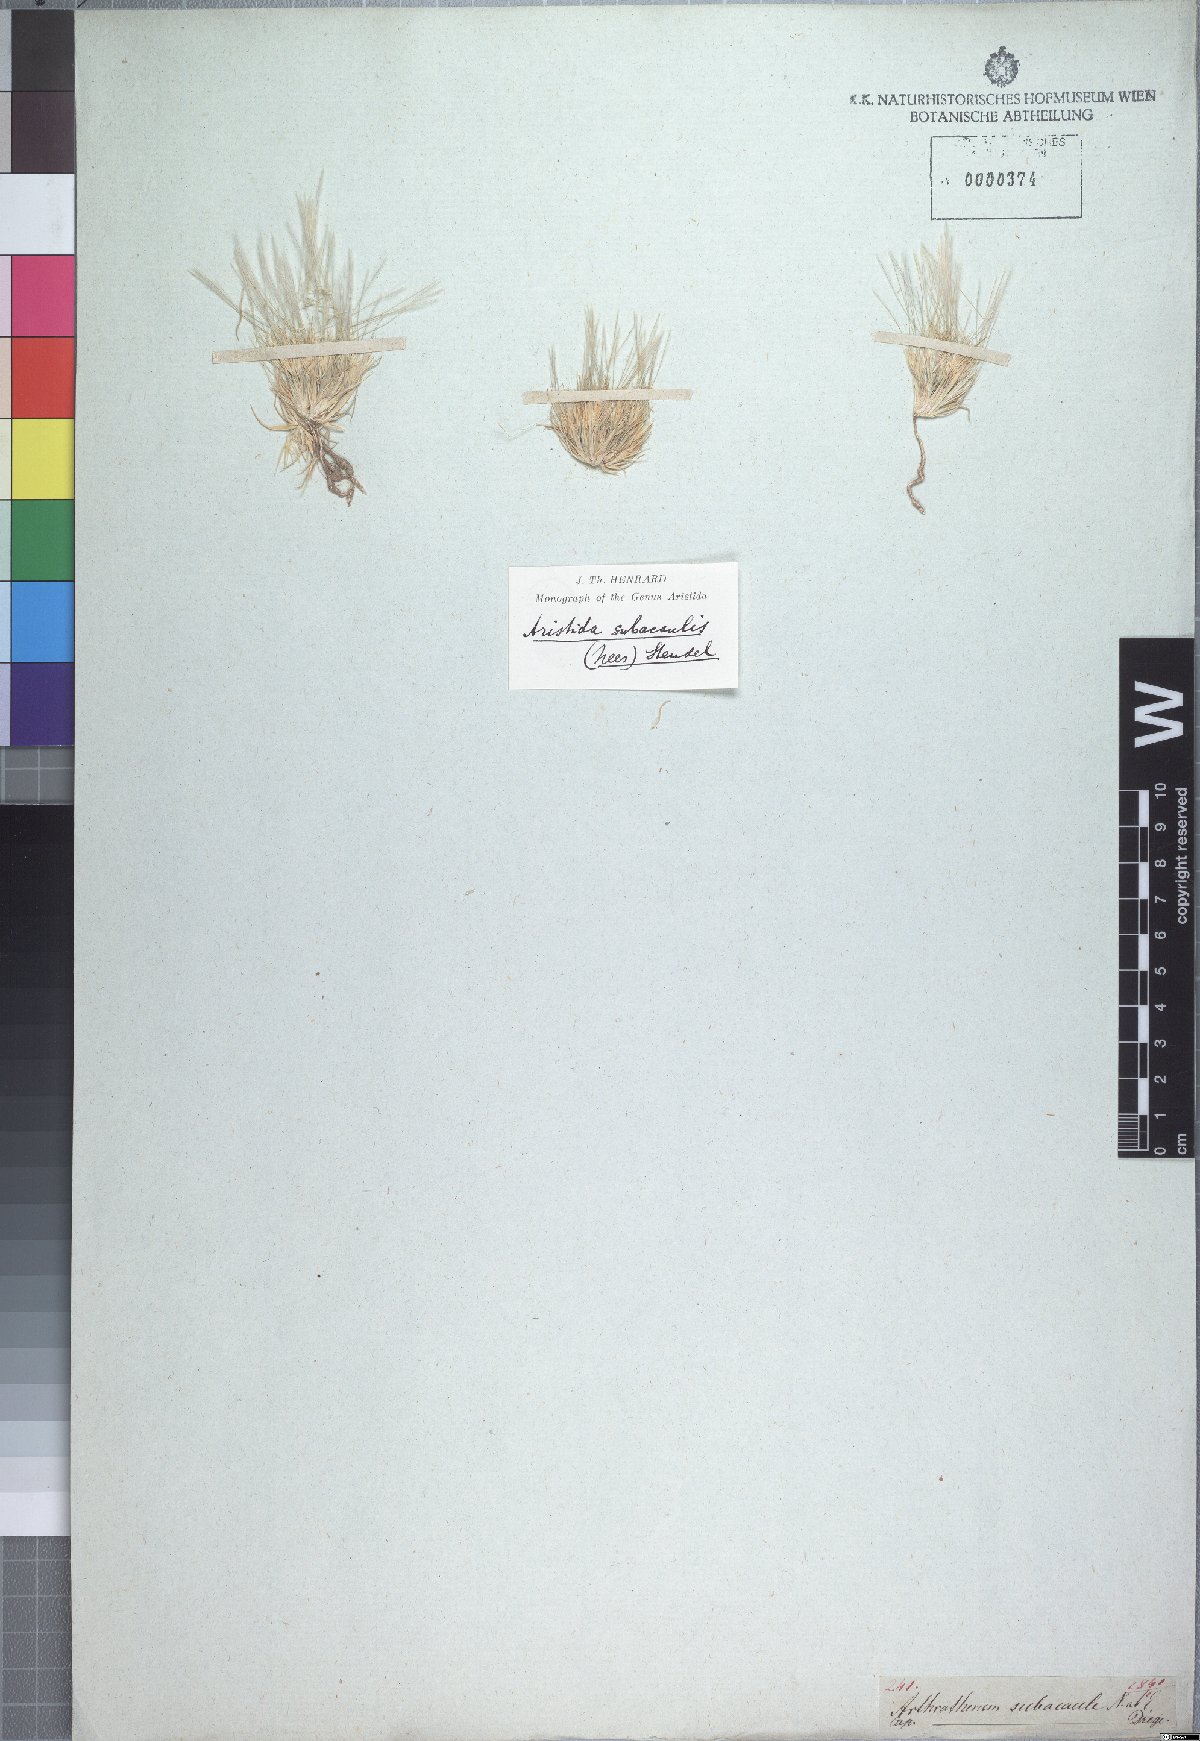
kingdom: Plantae
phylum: Tracheophyta
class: Liliopsida
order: Poales
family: Poaceae
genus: Stipagrostis
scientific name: Stipagrostis subacaulis
